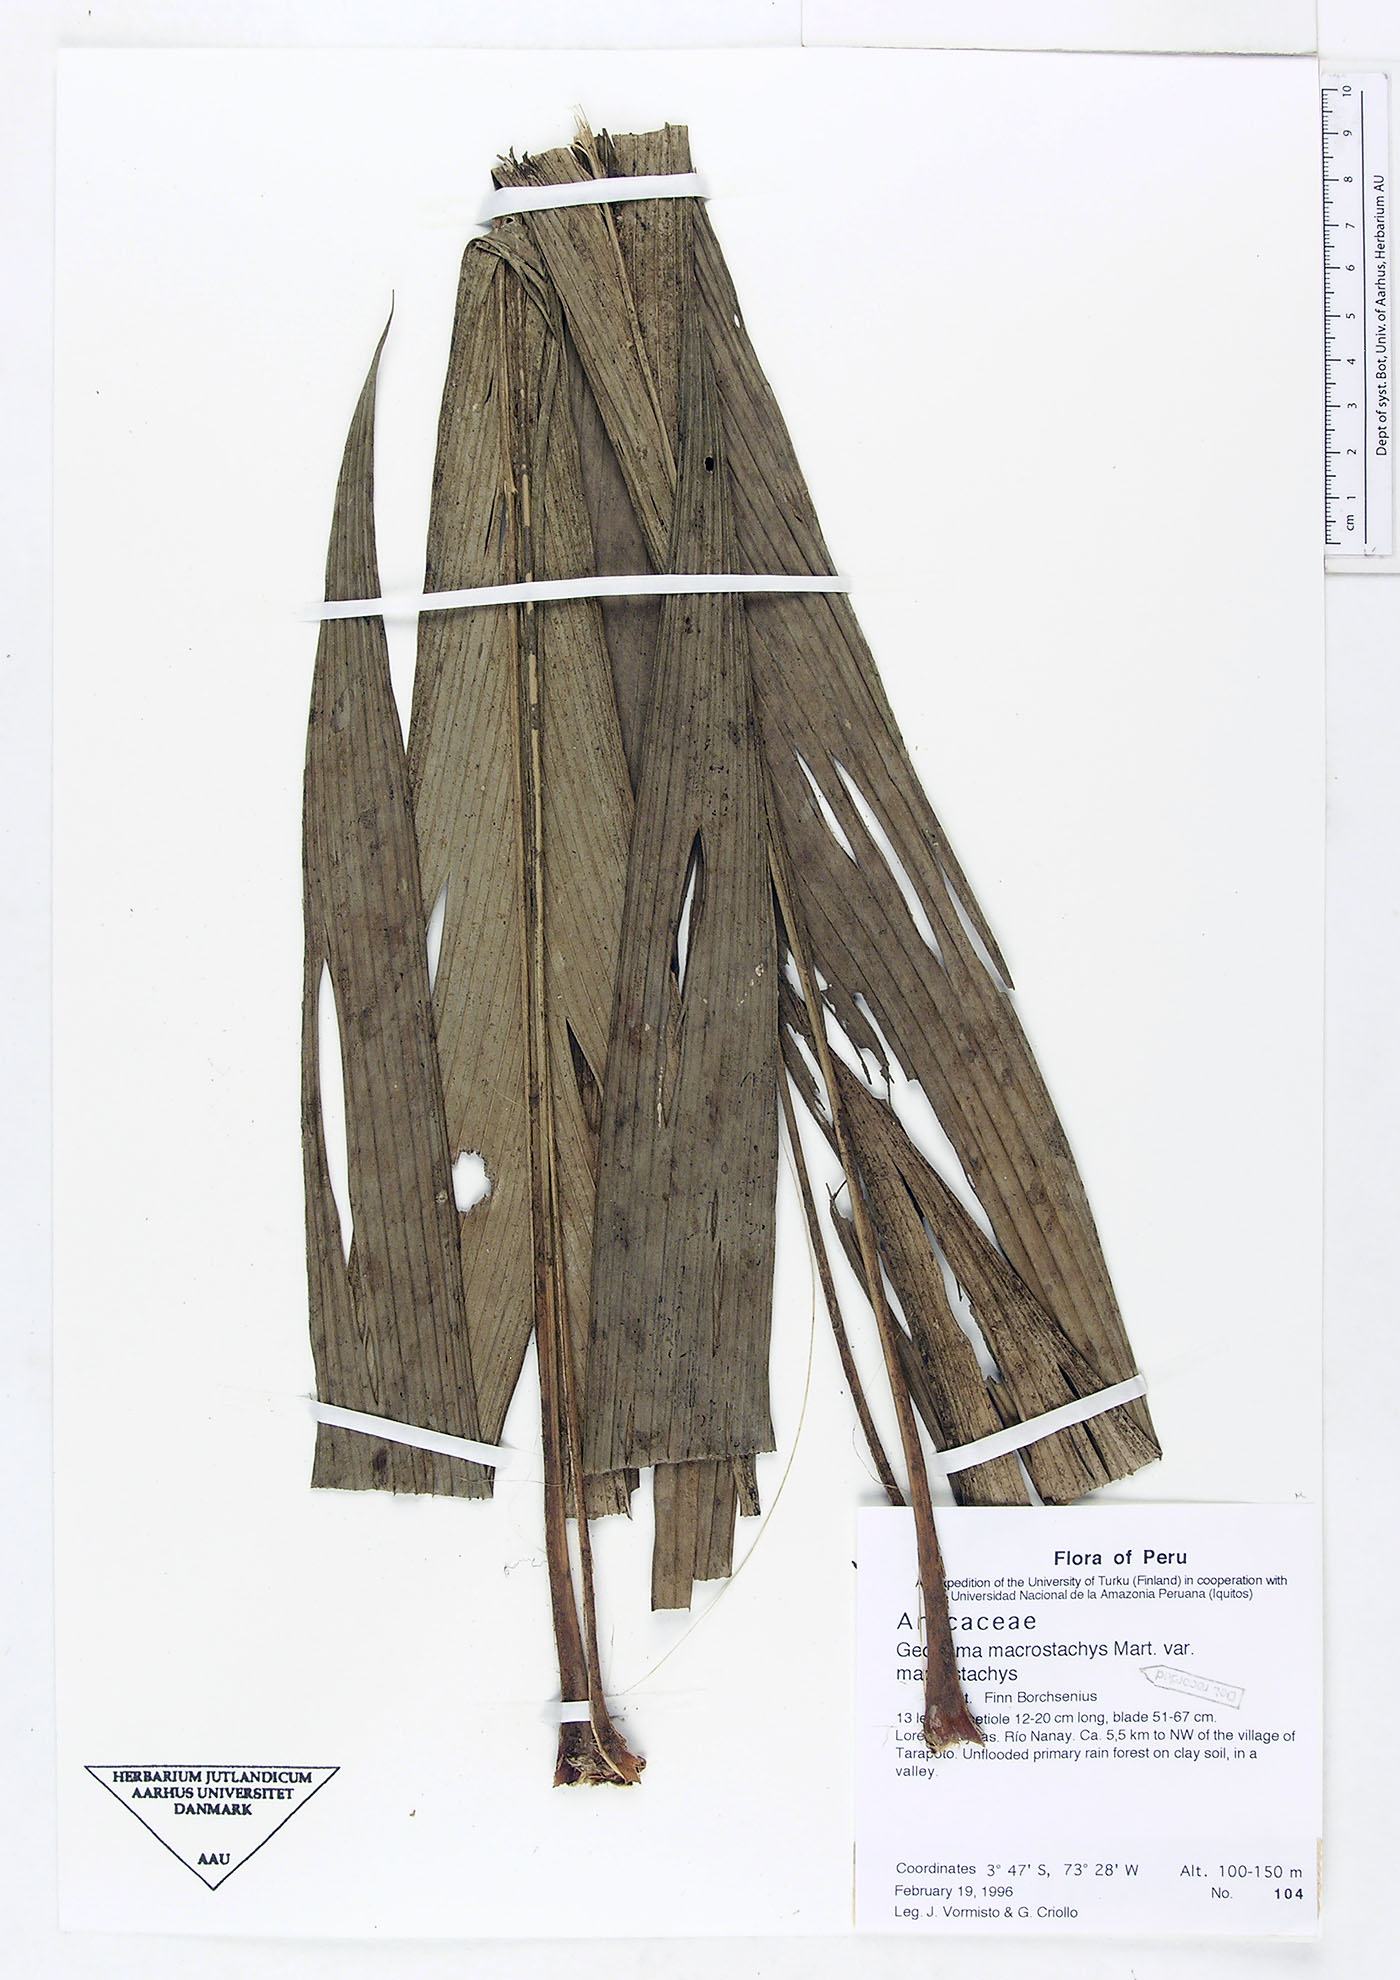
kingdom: Plantae
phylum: Tracheophyta
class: Liliopsida
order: Arecales
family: Arecaceae
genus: Geonoma
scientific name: Geonoma macrostachys
